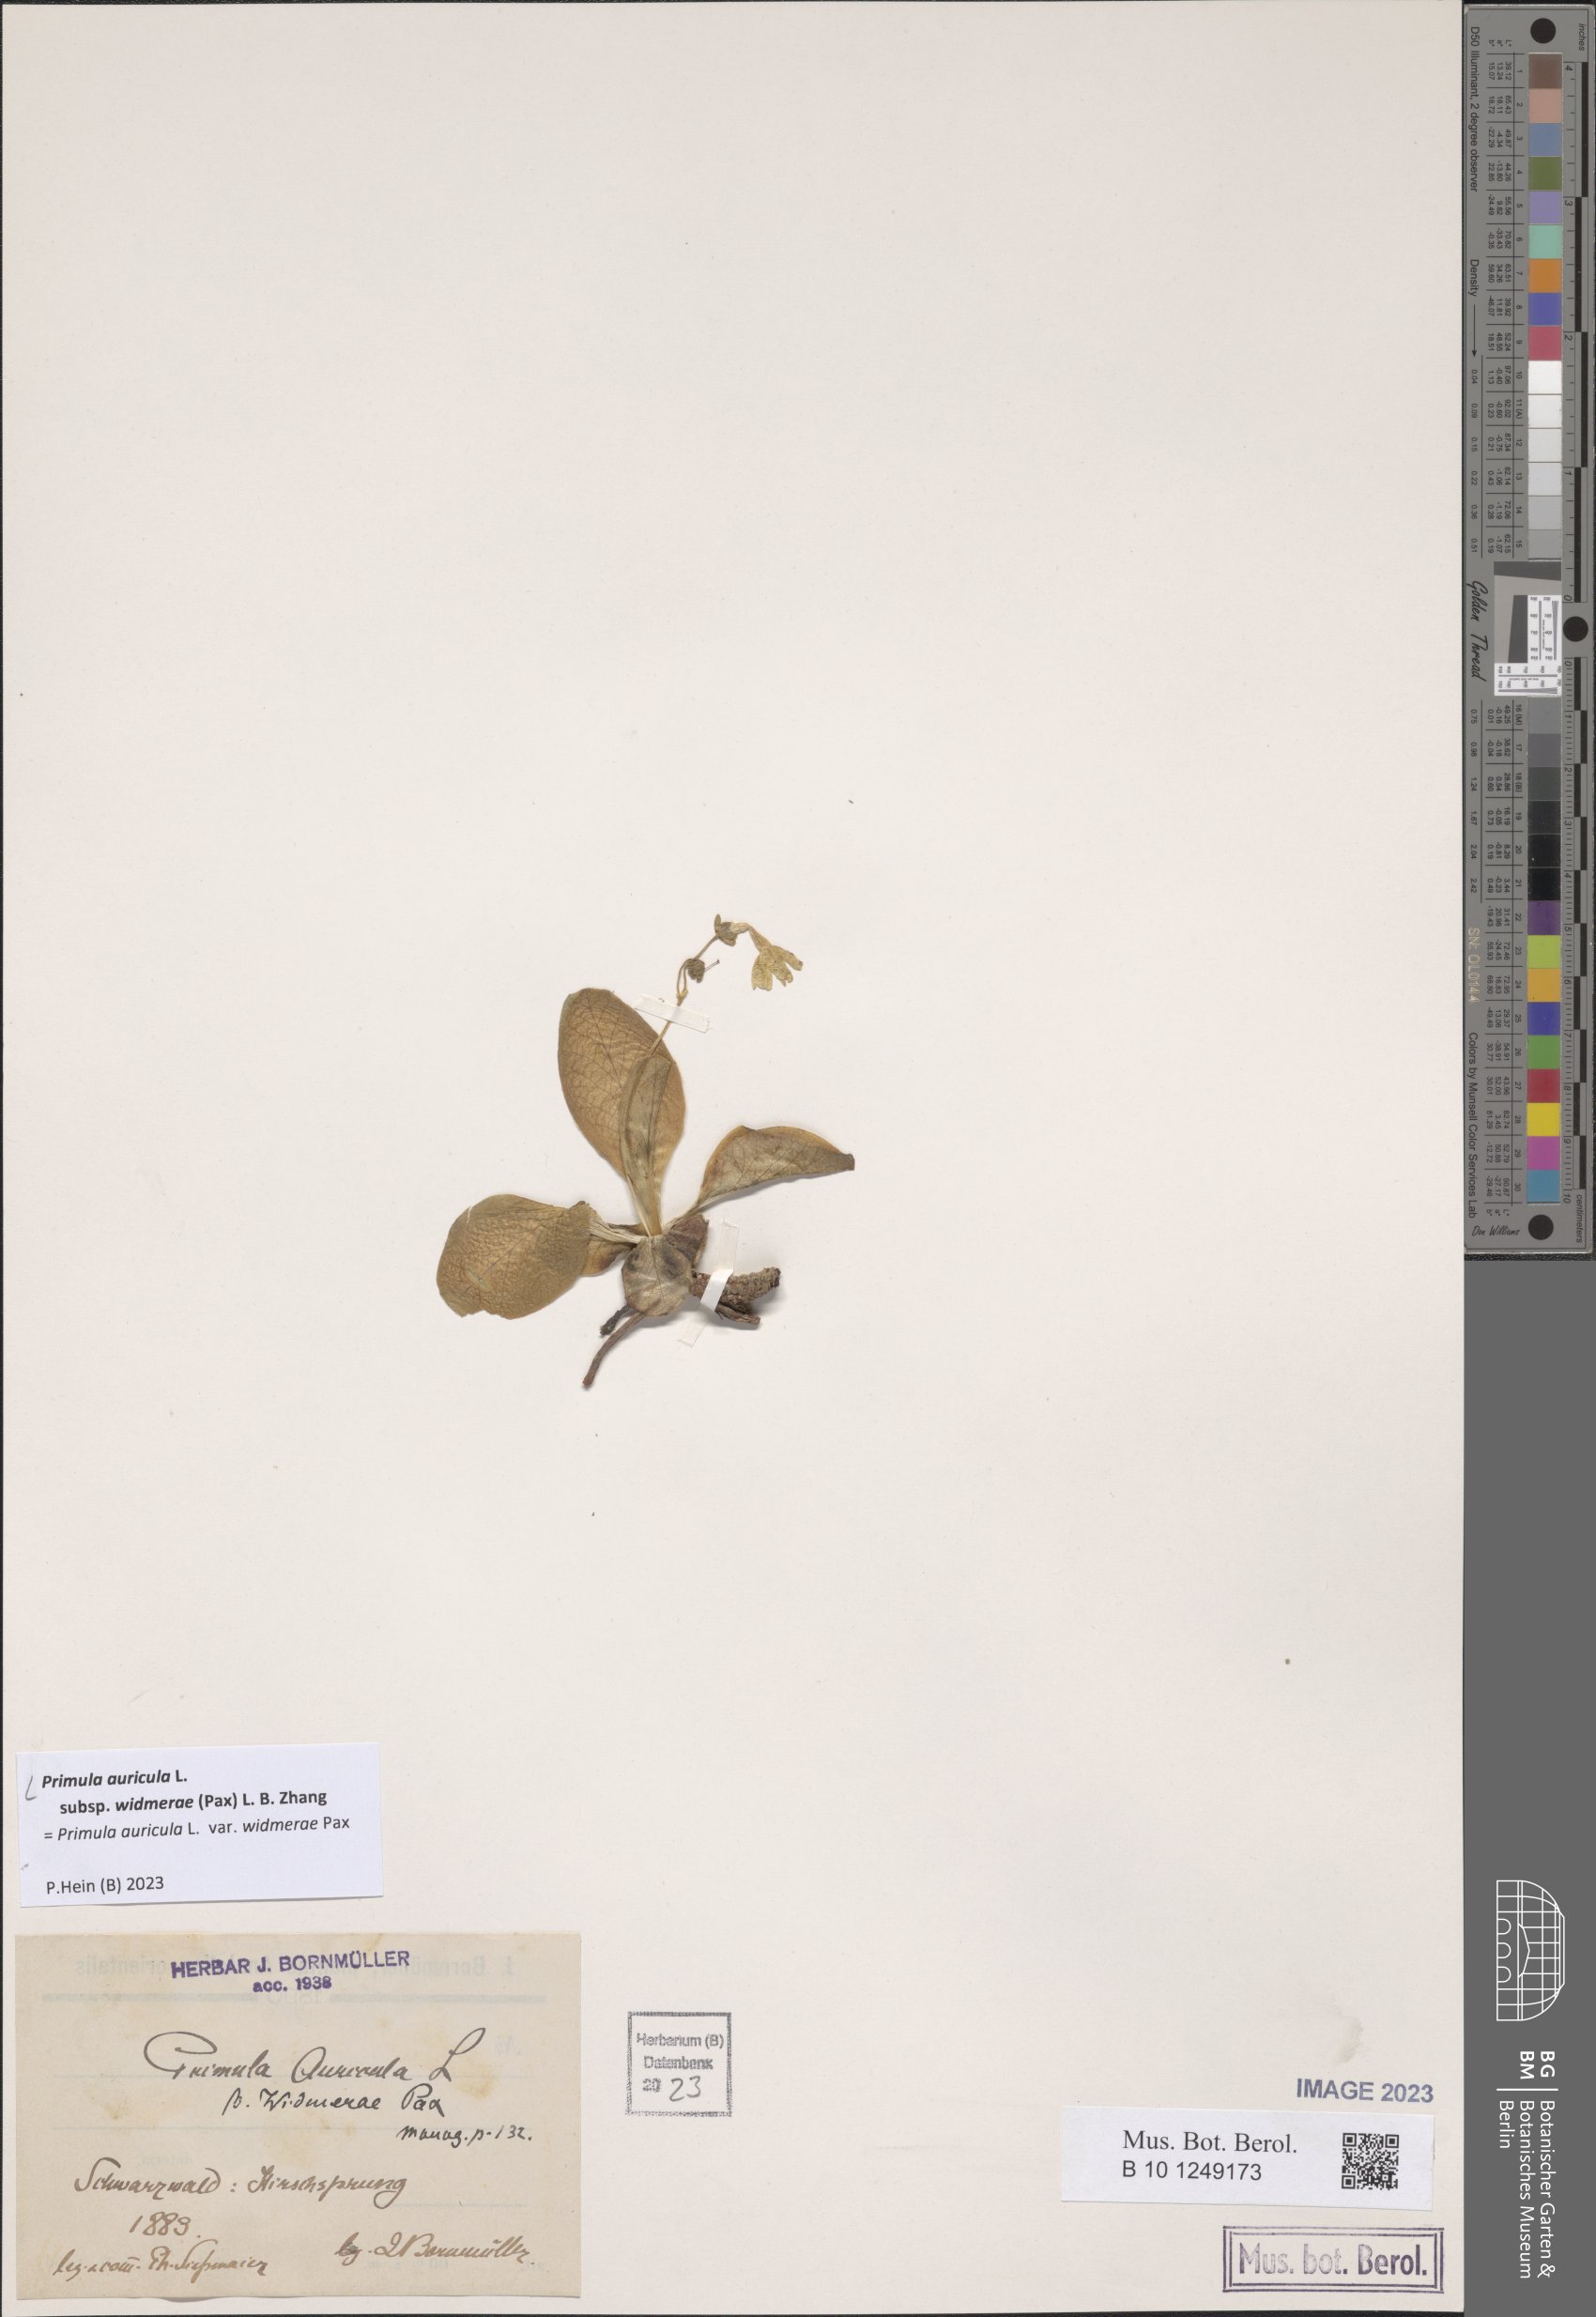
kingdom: Plantae
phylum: Tracheophyta
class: Magnoliopsida
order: Ericales
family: Primulaceae
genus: Primula
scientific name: Primula auricula
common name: Auricula
